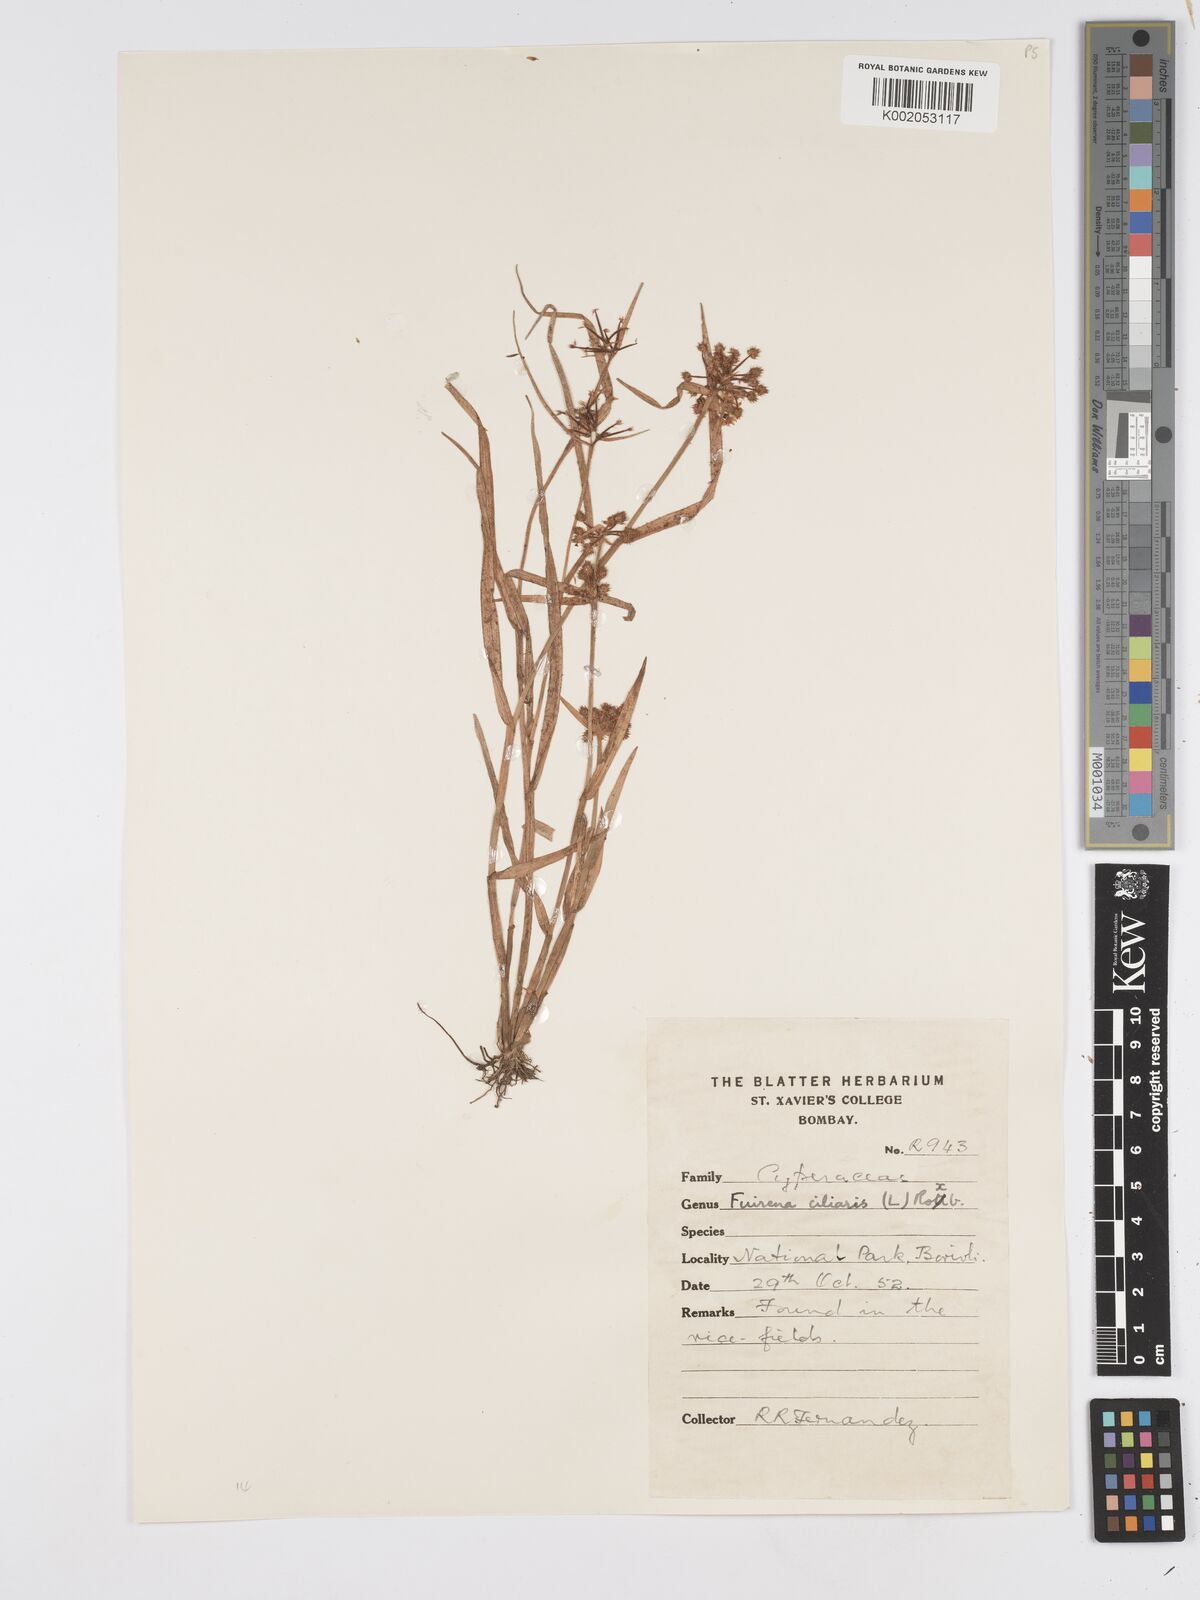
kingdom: Plantae
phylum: Tracheophyta
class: Liliopsida
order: Poales
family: Cyperaceae
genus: Fuirena
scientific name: Fuirena ciliaris
